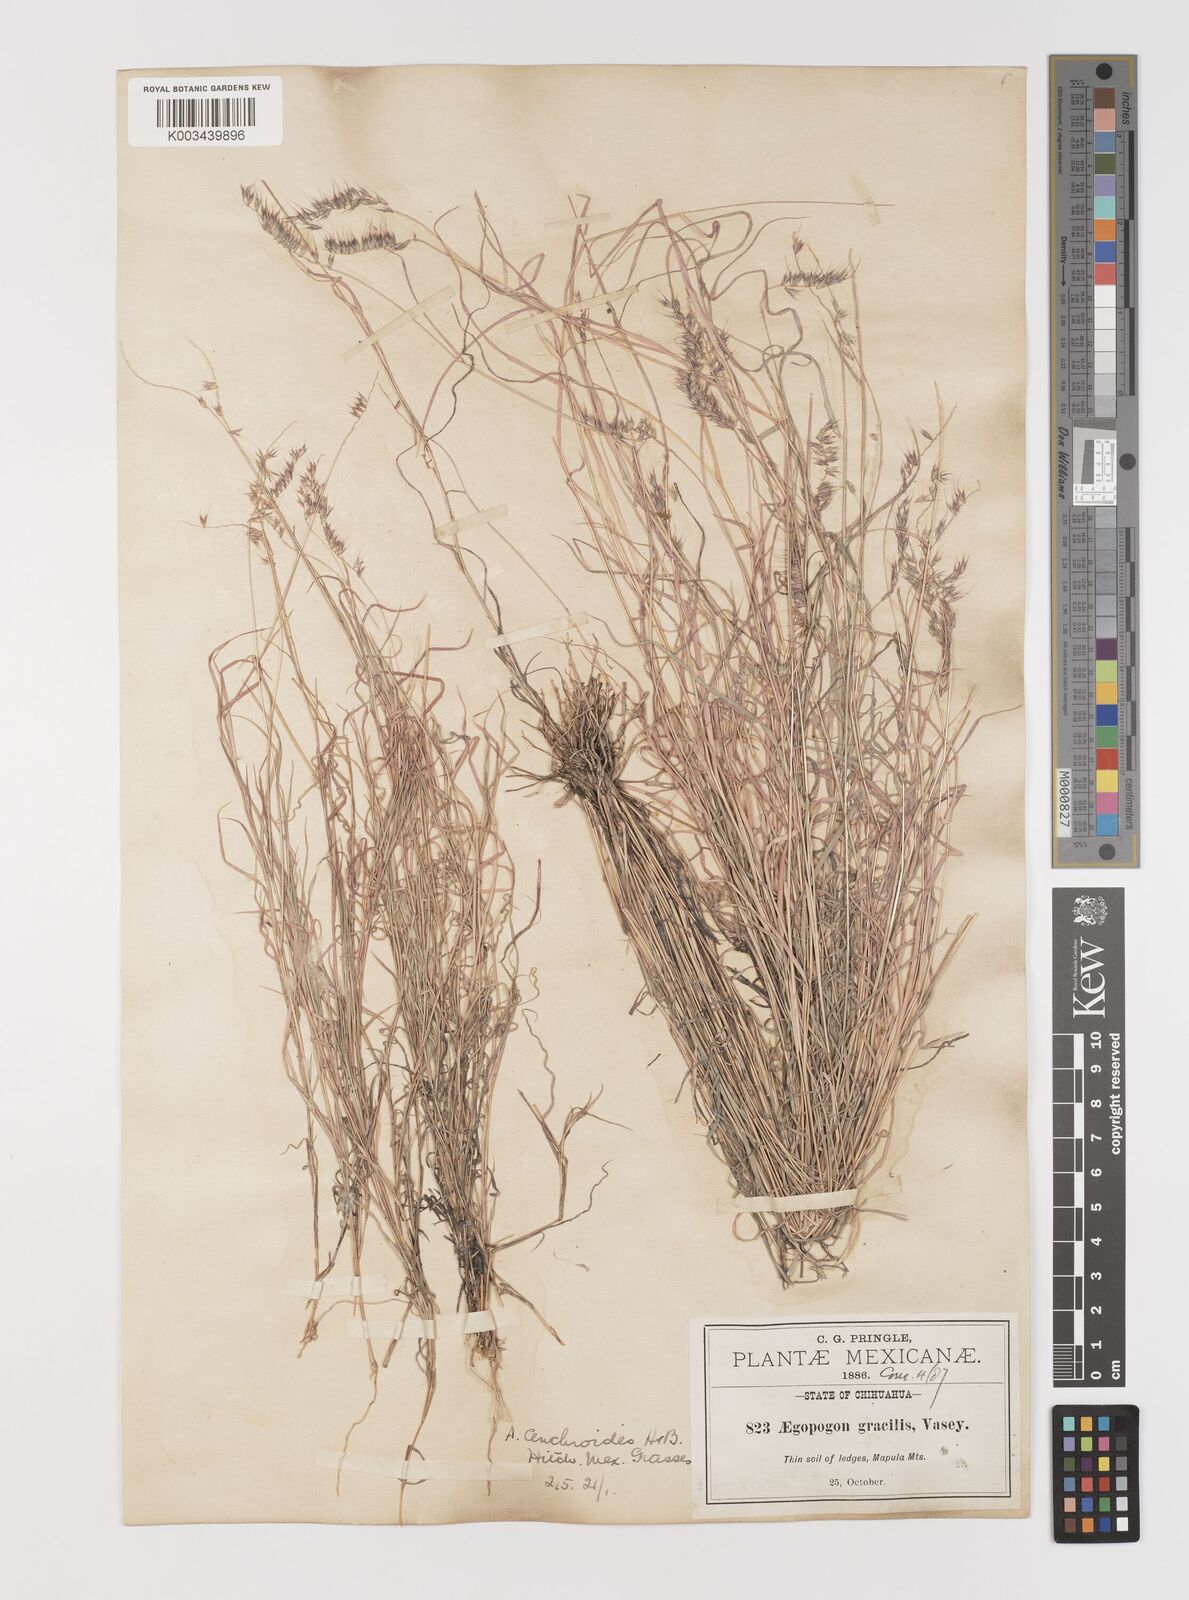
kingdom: Plantae
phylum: Tracheophyta
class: Liliopsida
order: Poales
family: Poaceae
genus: Muhlenbergia
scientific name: Muhlenbergia cenchroides
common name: Relaxgrass
